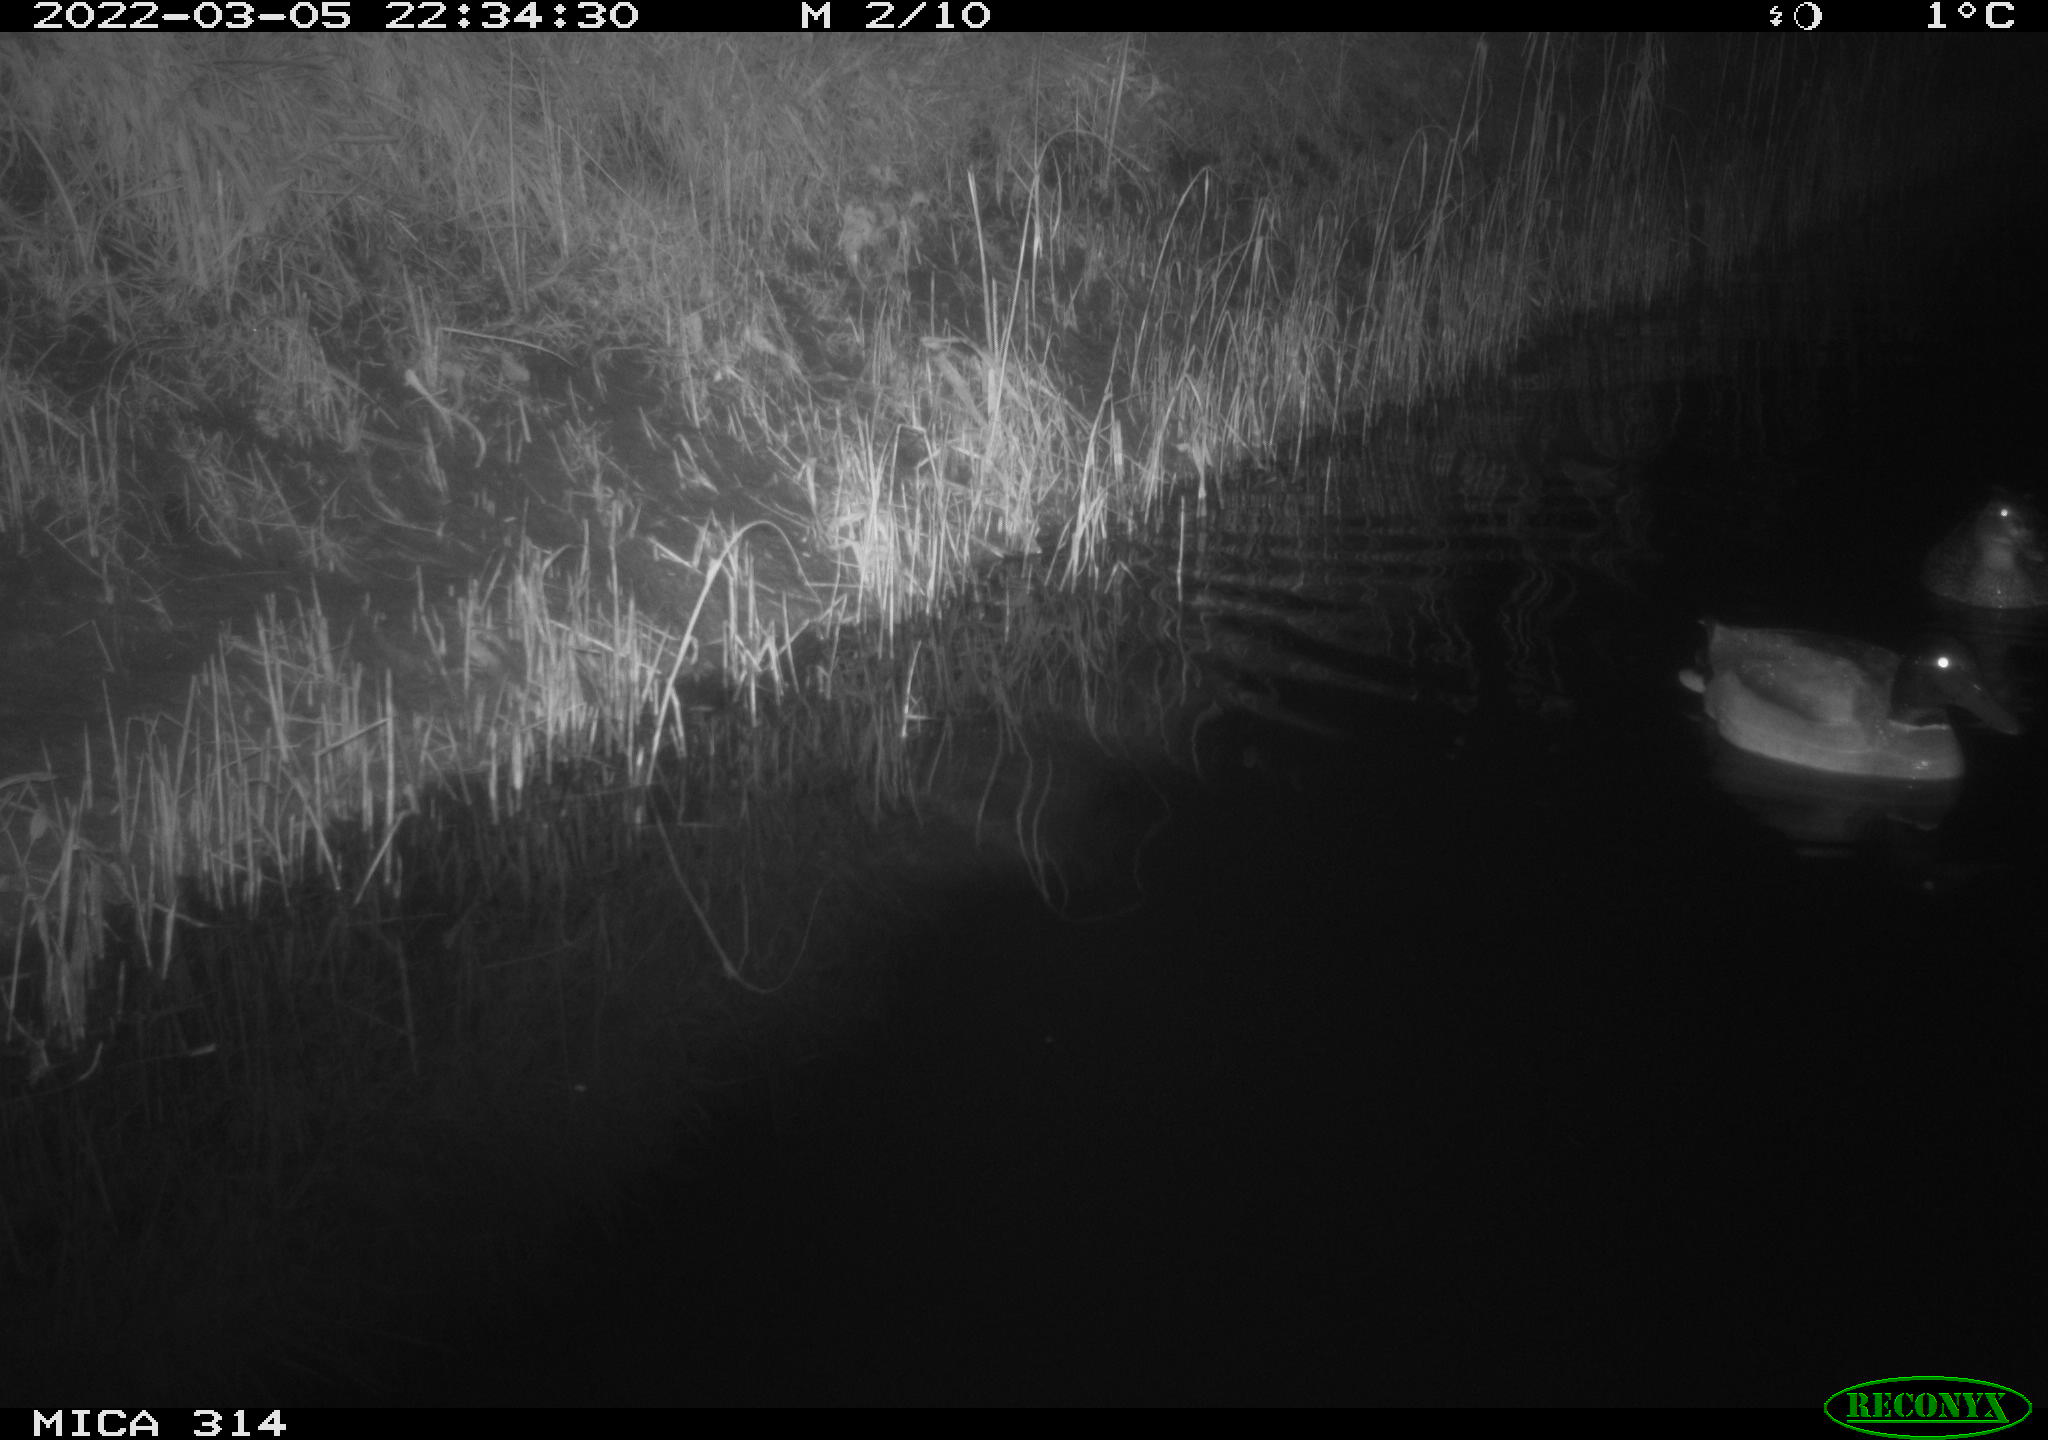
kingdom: Animalia
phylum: Chordata
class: Aves
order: Anseriformes
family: Anatidae
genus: Anas
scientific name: Anas platyrhynchos
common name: Mallard
